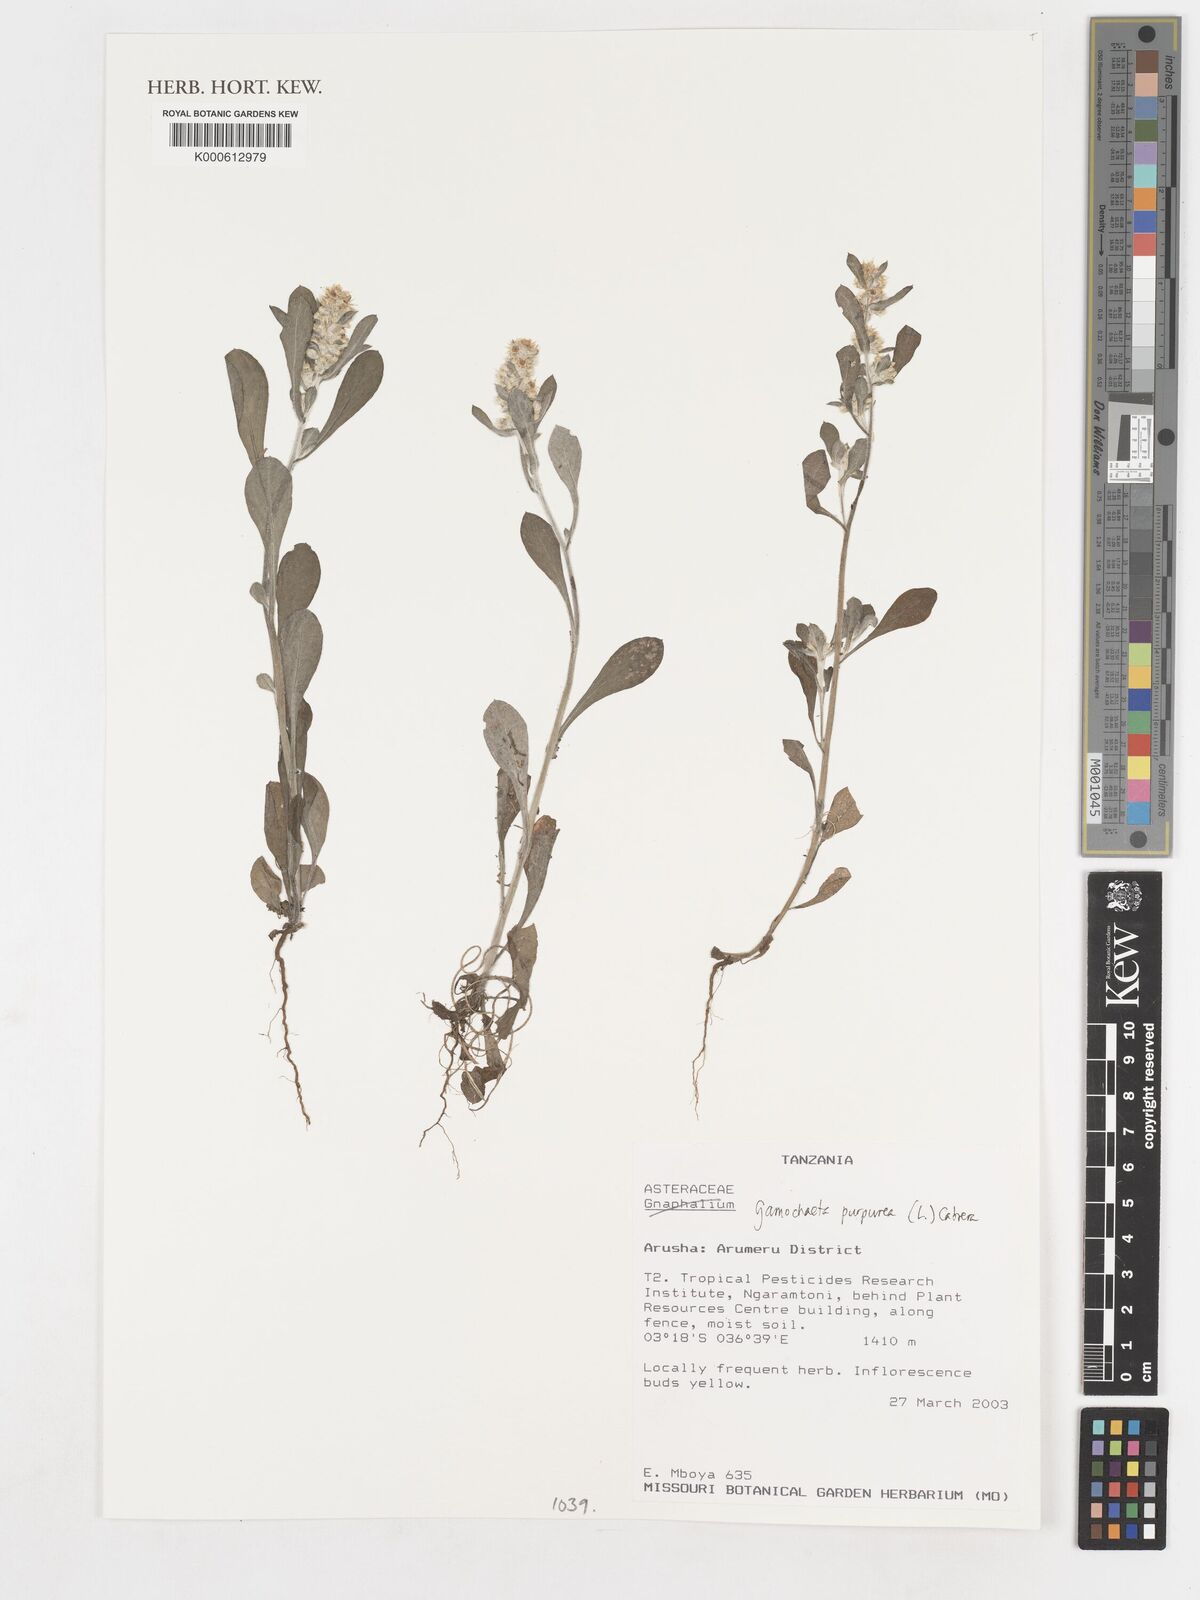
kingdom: Plantae
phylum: Tracheophyta
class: Magnoliopsida
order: Asterales
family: Asteraceae
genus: Gamochaeta
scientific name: Gamochaeta purpurea
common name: Purple cudweed
